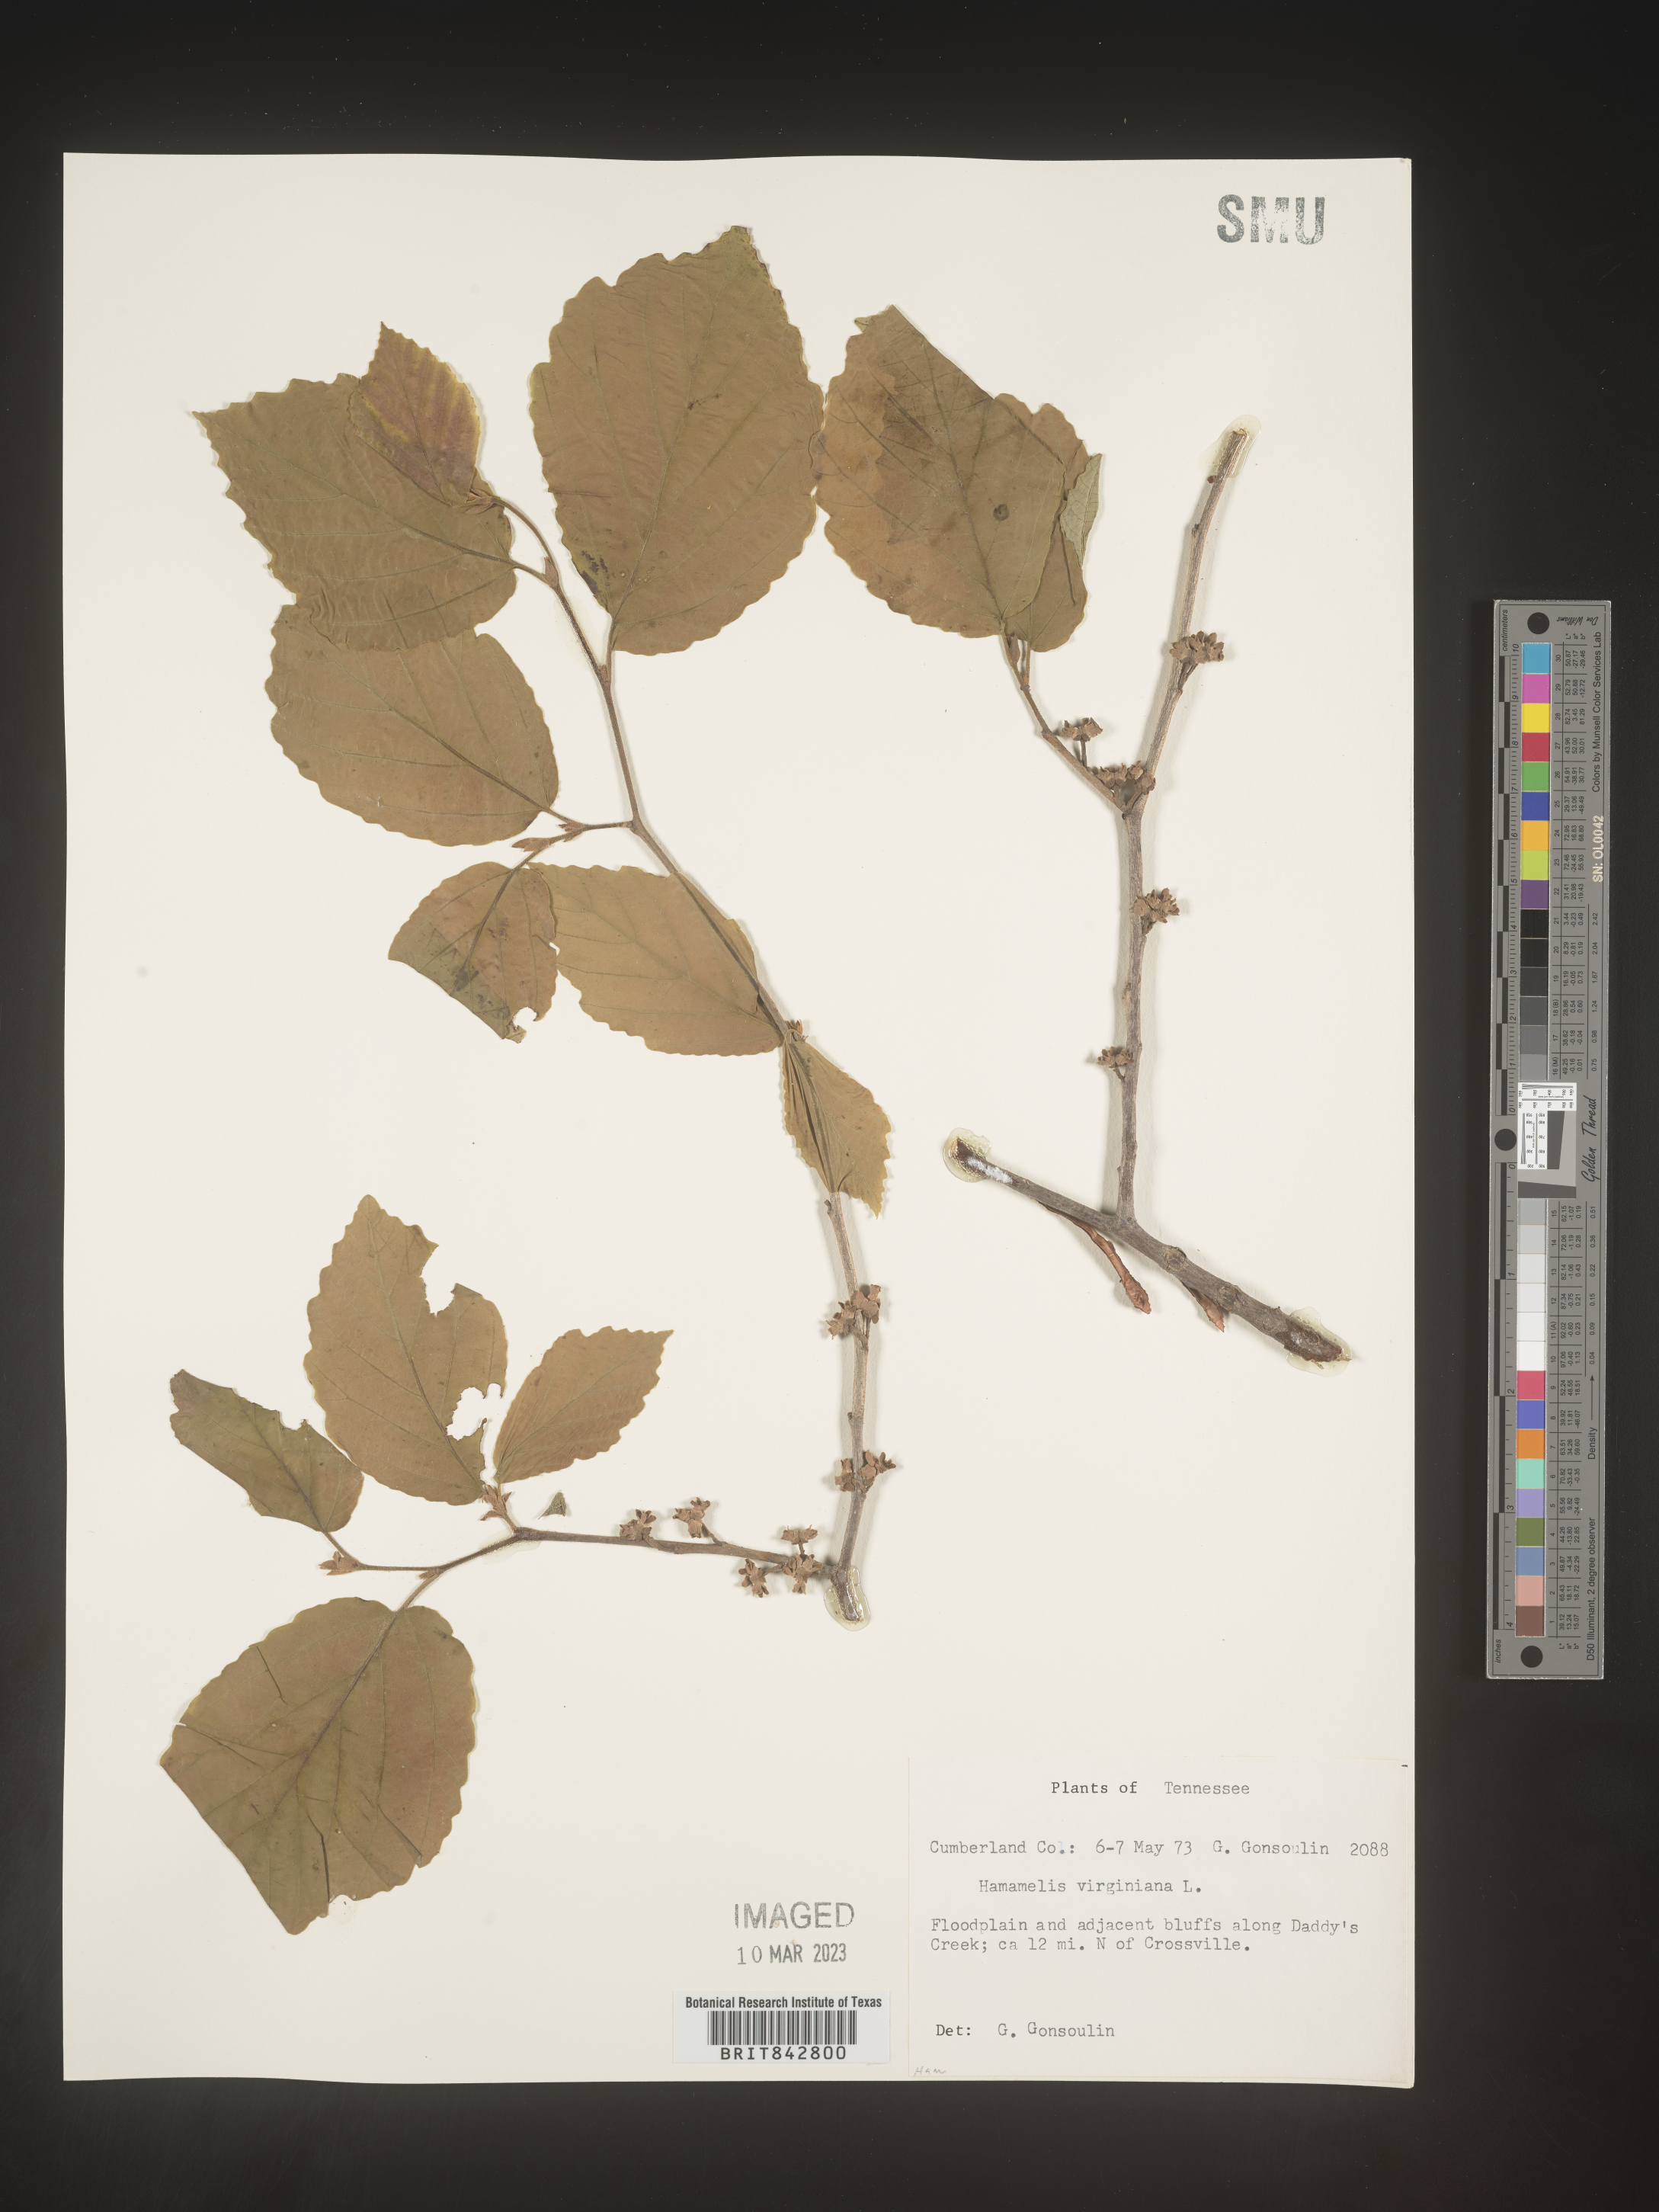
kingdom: Plantae
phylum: Tracheophyta
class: Magnoliopsida
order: Saxifragales
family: Hamamelidaceae
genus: Hamamelis
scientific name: Hamamelis virginiana
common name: Witch-hazel
